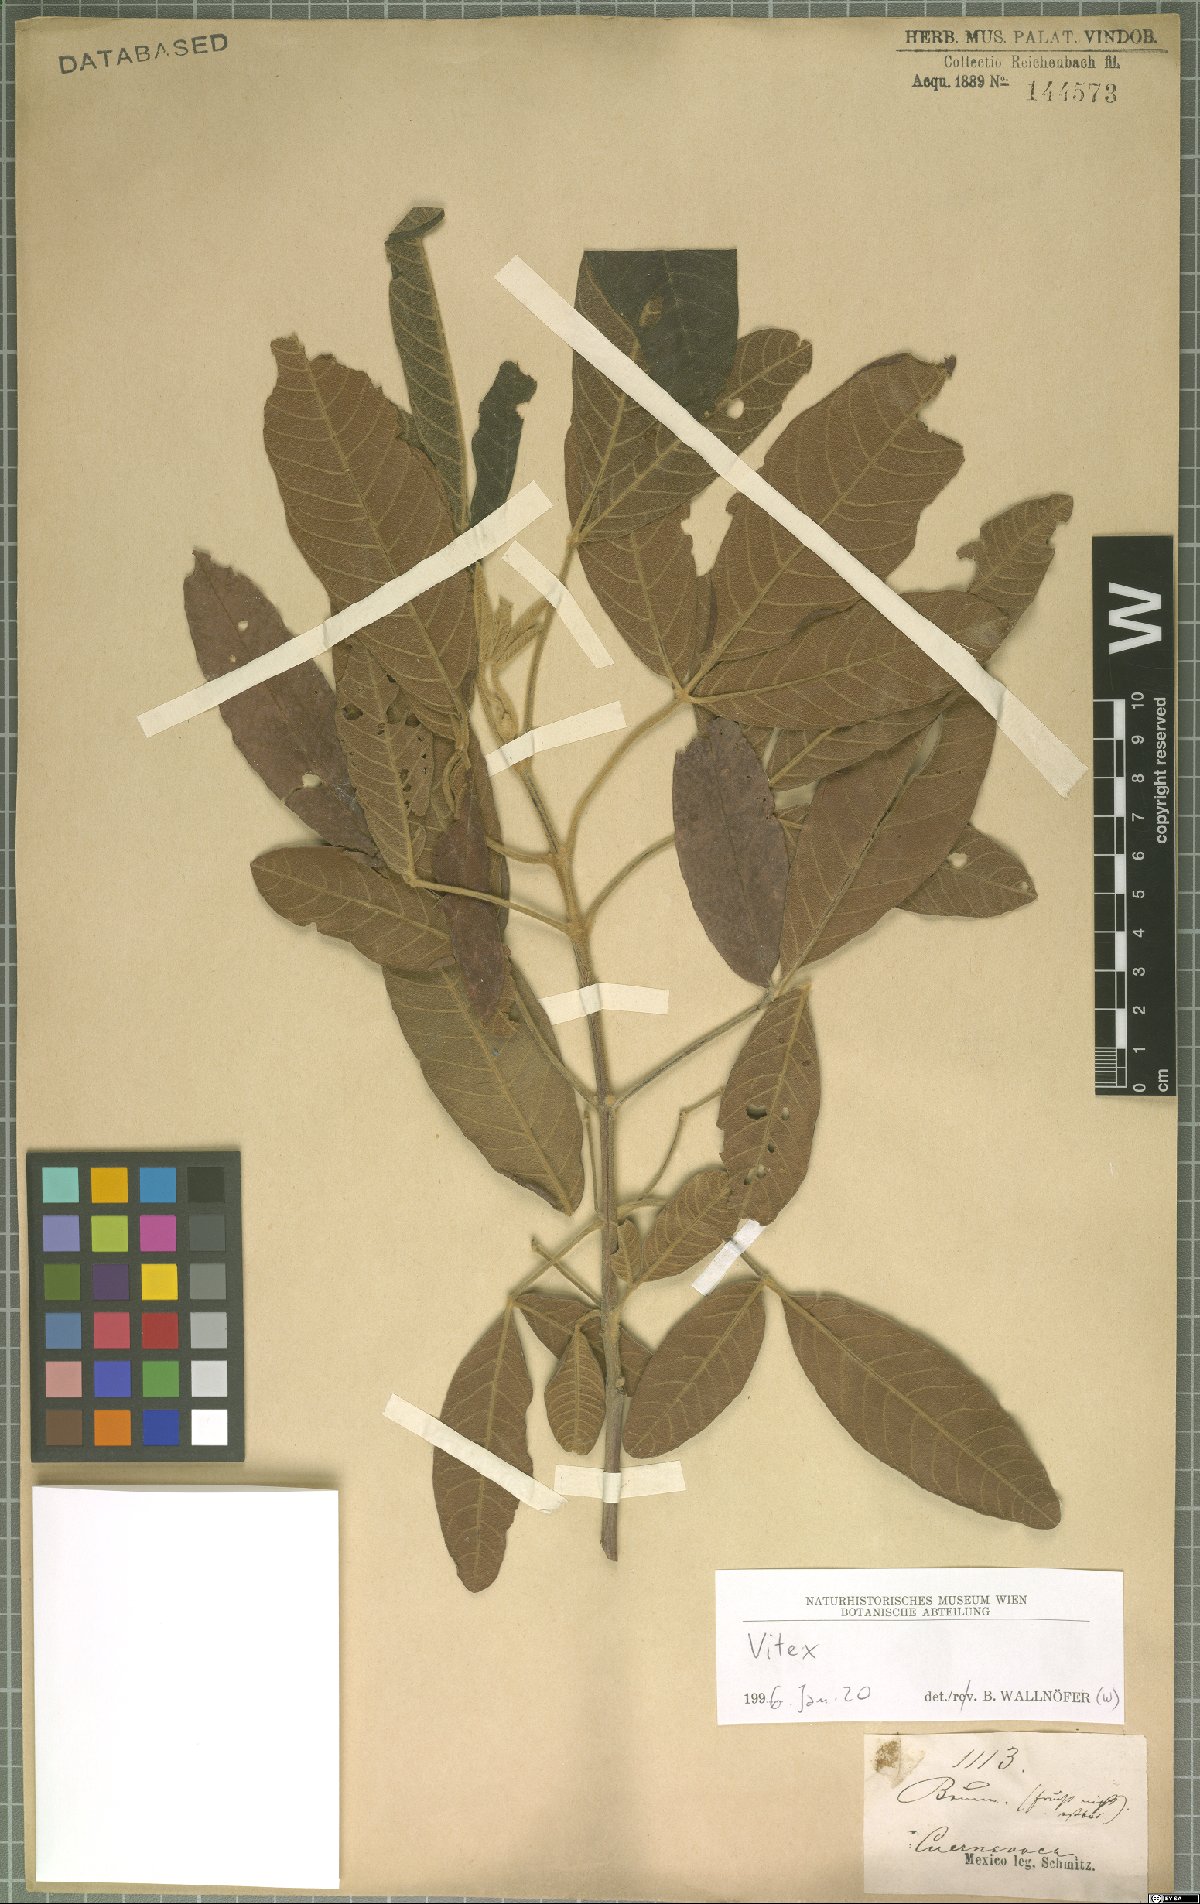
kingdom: Plantae
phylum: Tracheophyta
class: Magnoliopsida
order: Lamiales
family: Lamiaceae
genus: Vitex
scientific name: Vitex
